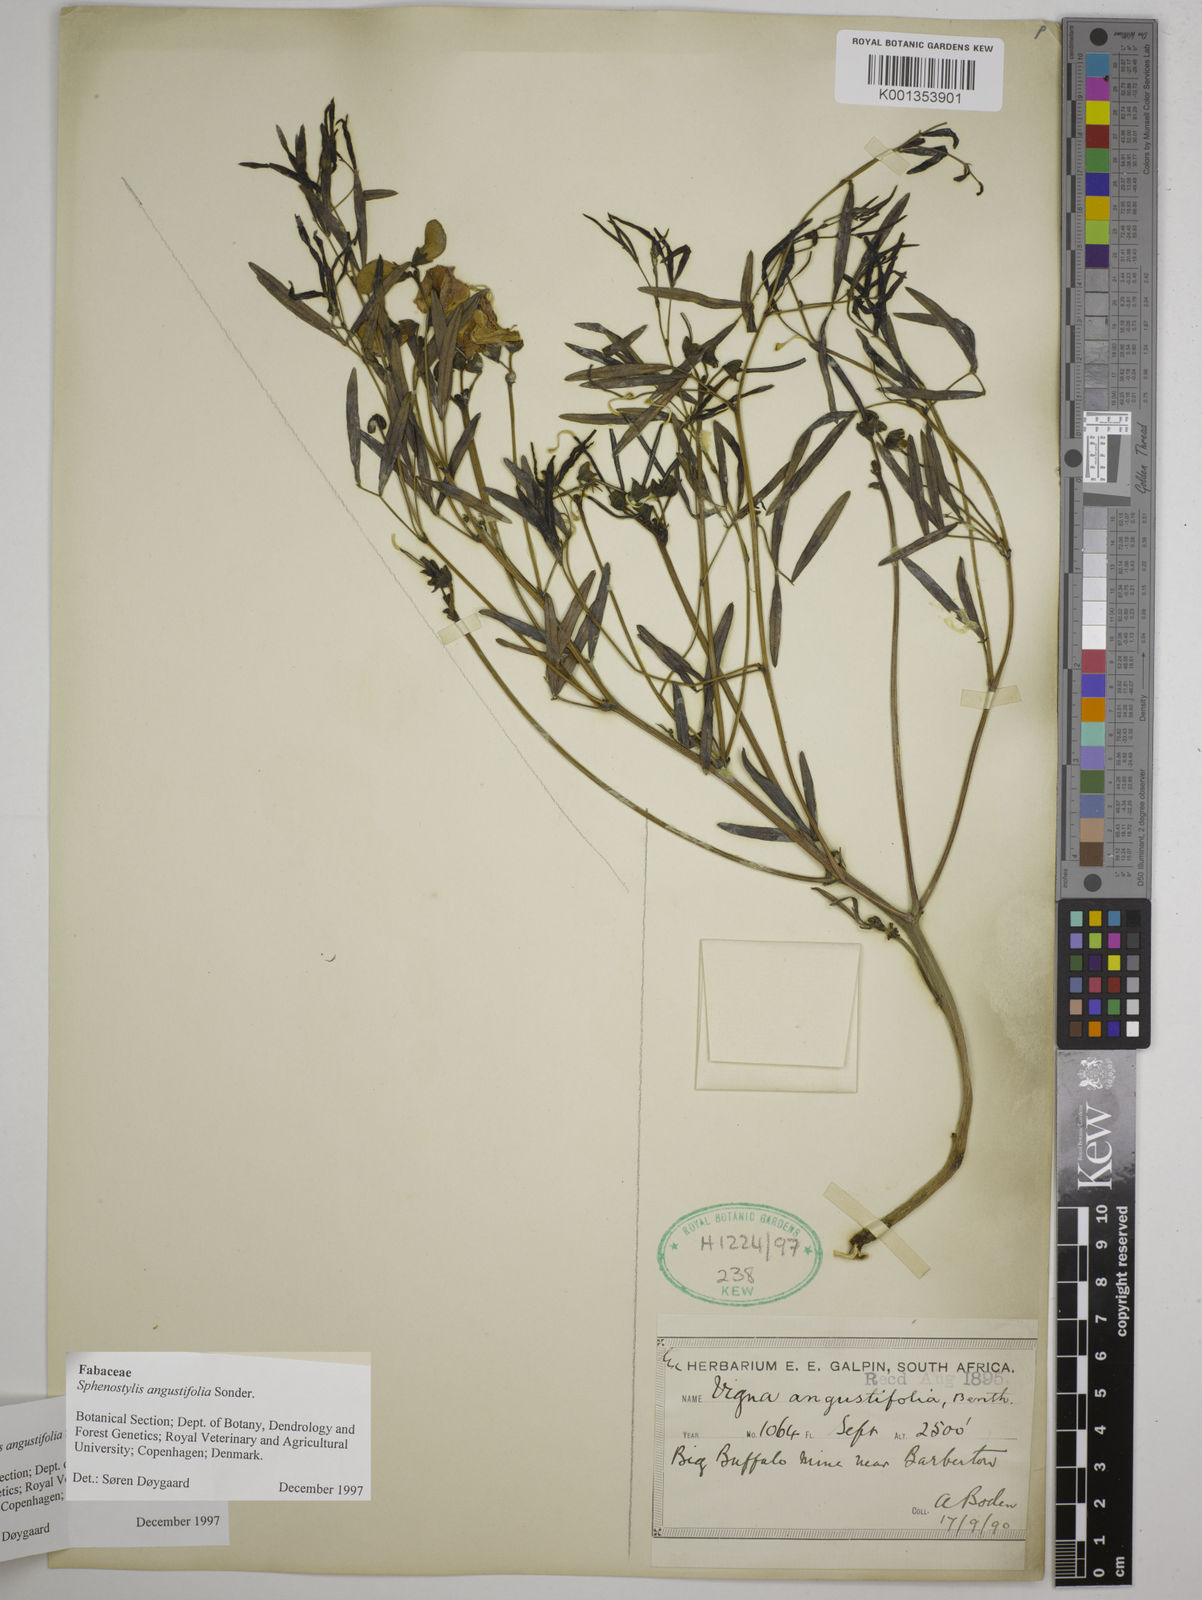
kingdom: Plantae
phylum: Tracheophyta
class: Magnoliopsida
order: Fabales
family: Fabaceae
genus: Sphenostylis
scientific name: Sphenostylis angustifolia
